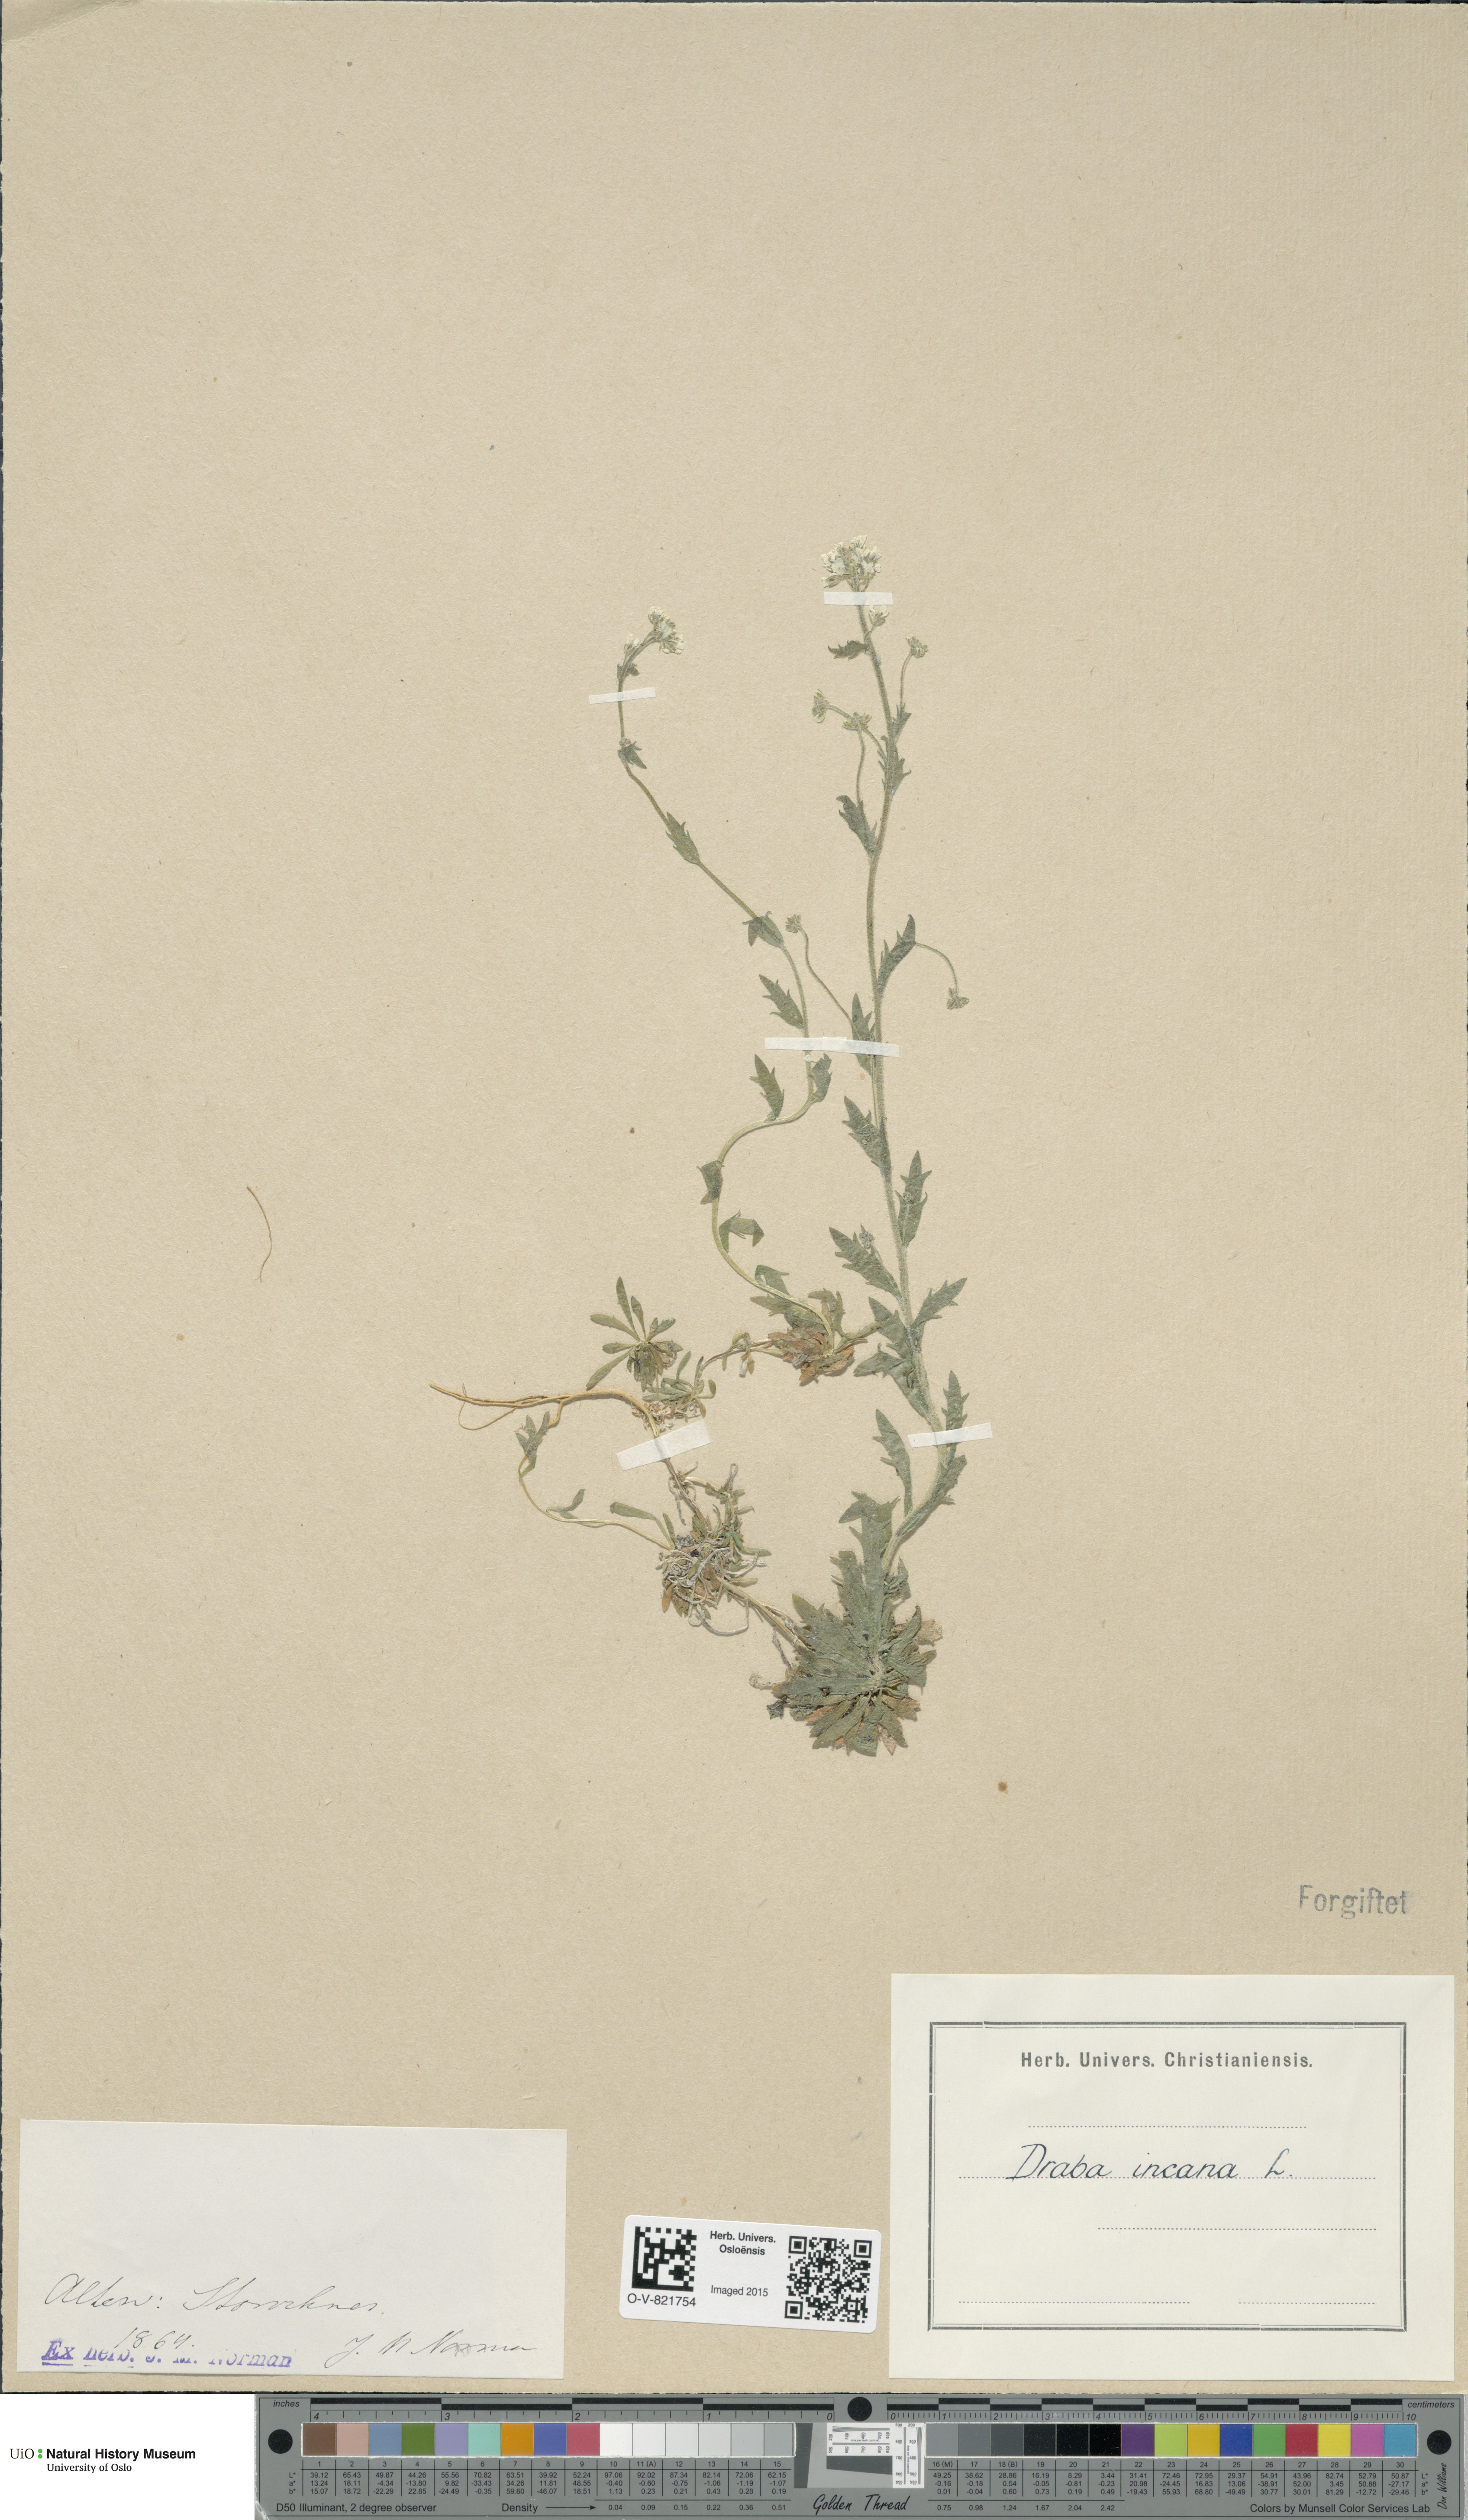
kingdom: Plantae
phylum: Tracheophyta
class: Magnoliopsida
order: Brassicales
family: Brassicaceae
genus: Draba
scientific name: Draba incana
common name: Hoary whitlow-grass
